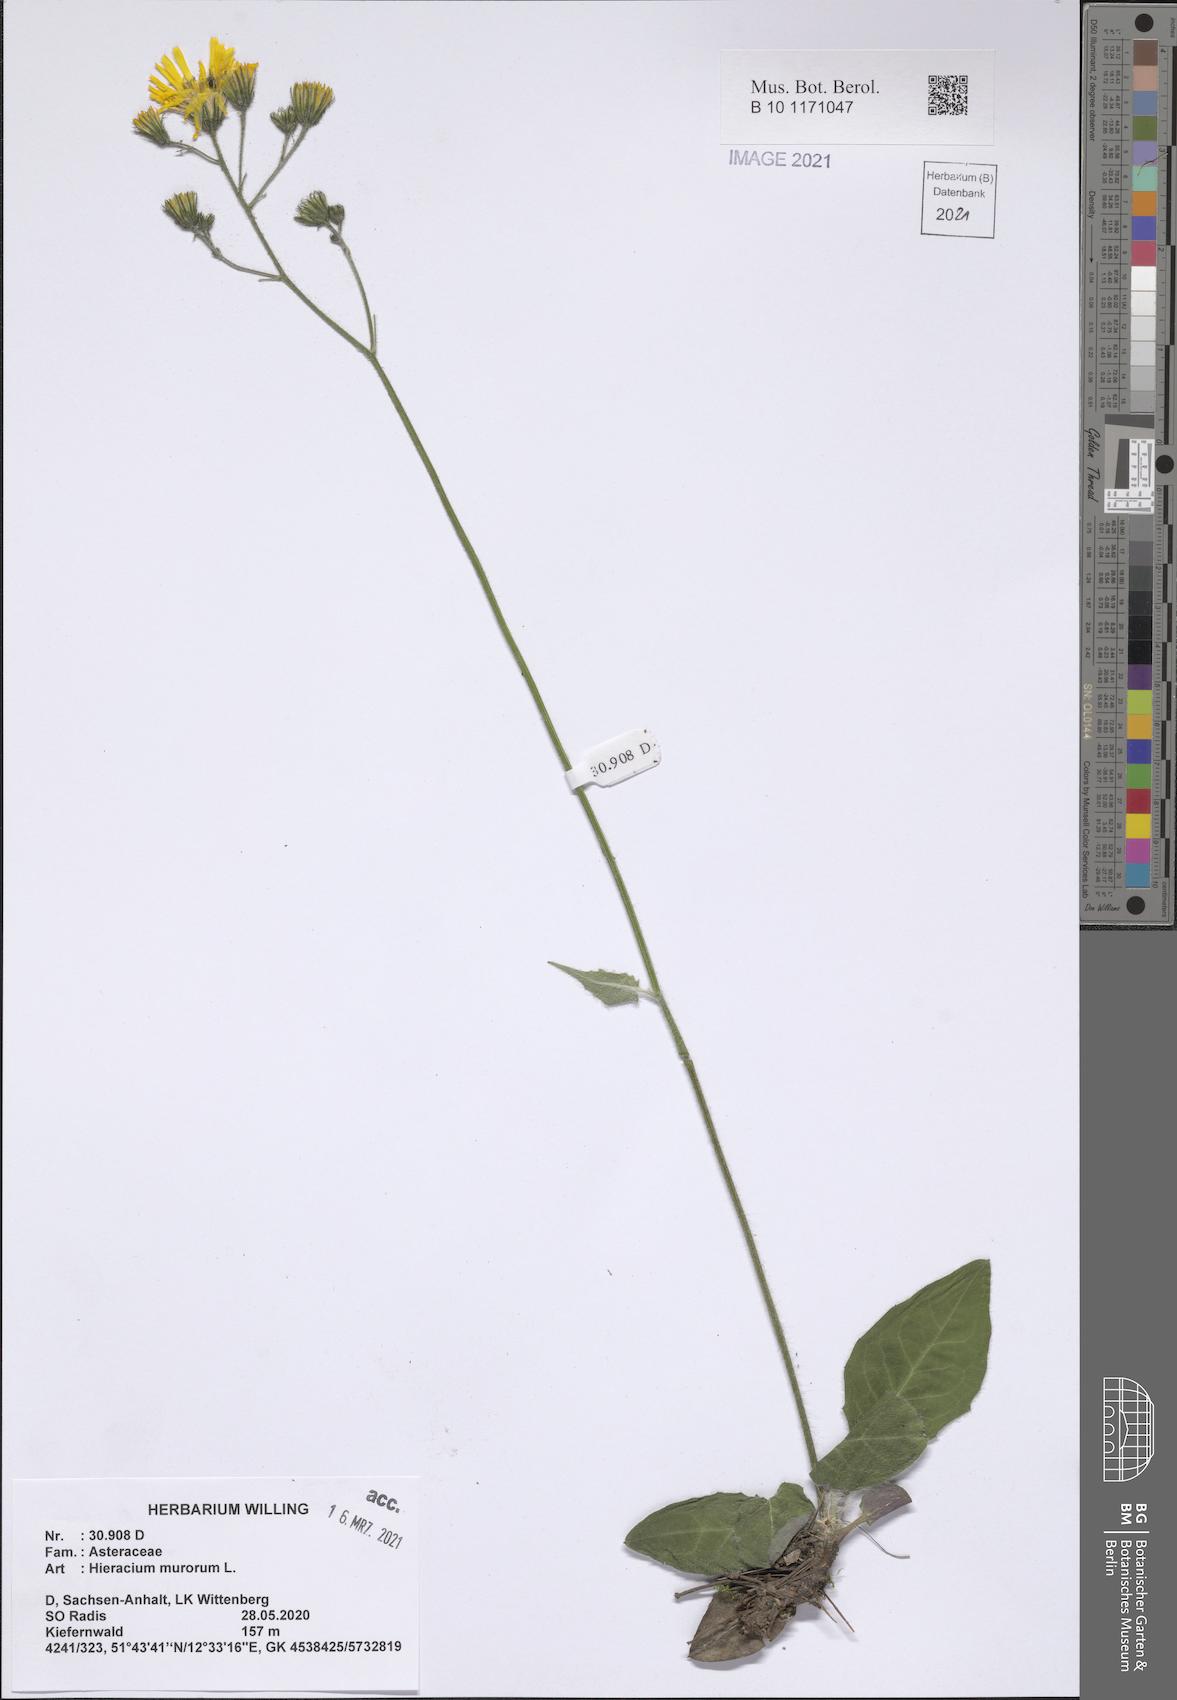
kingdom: Plantae
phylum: Tracheophyta
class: Magnoliopsida
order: Asterales
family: Asteraceae
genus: Hieracium
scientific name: Hieracium murorum
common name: Wall hawkweed
